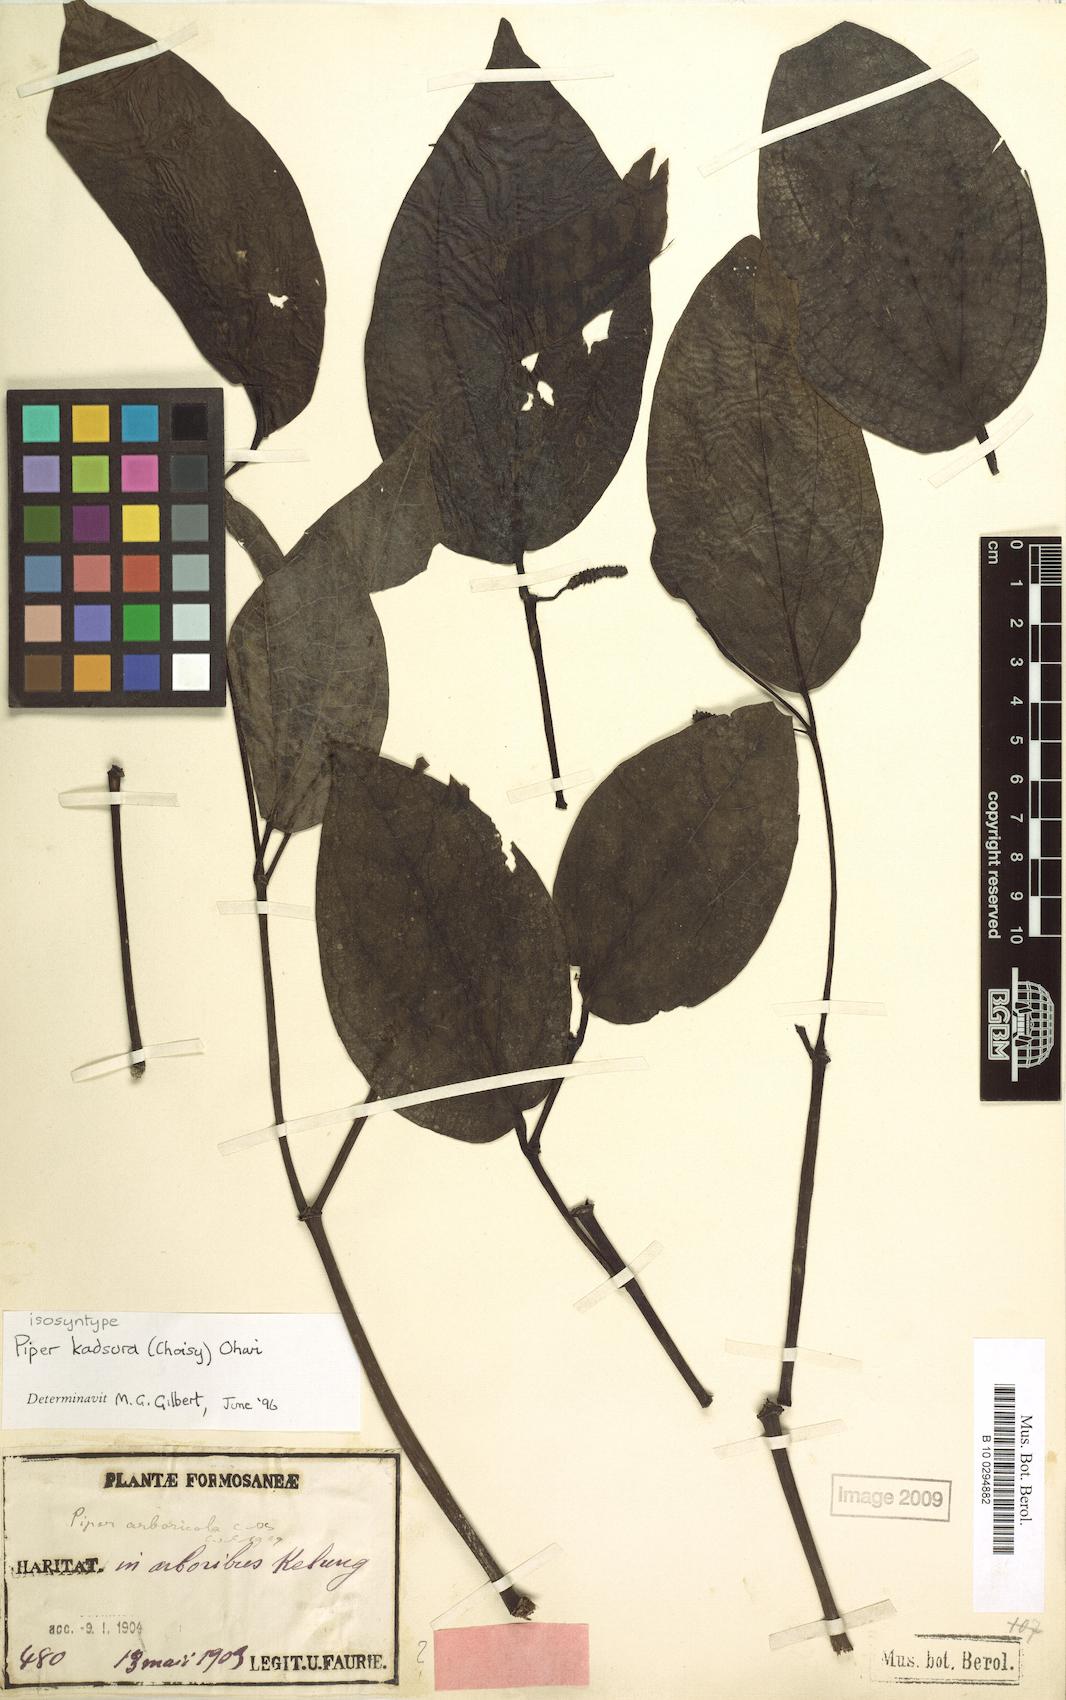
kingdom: Plantae
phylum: Tracheophyta
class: Magnoliopsida
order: Piperales
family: Piperaceae
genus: Piper
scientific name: Piper kadsura
